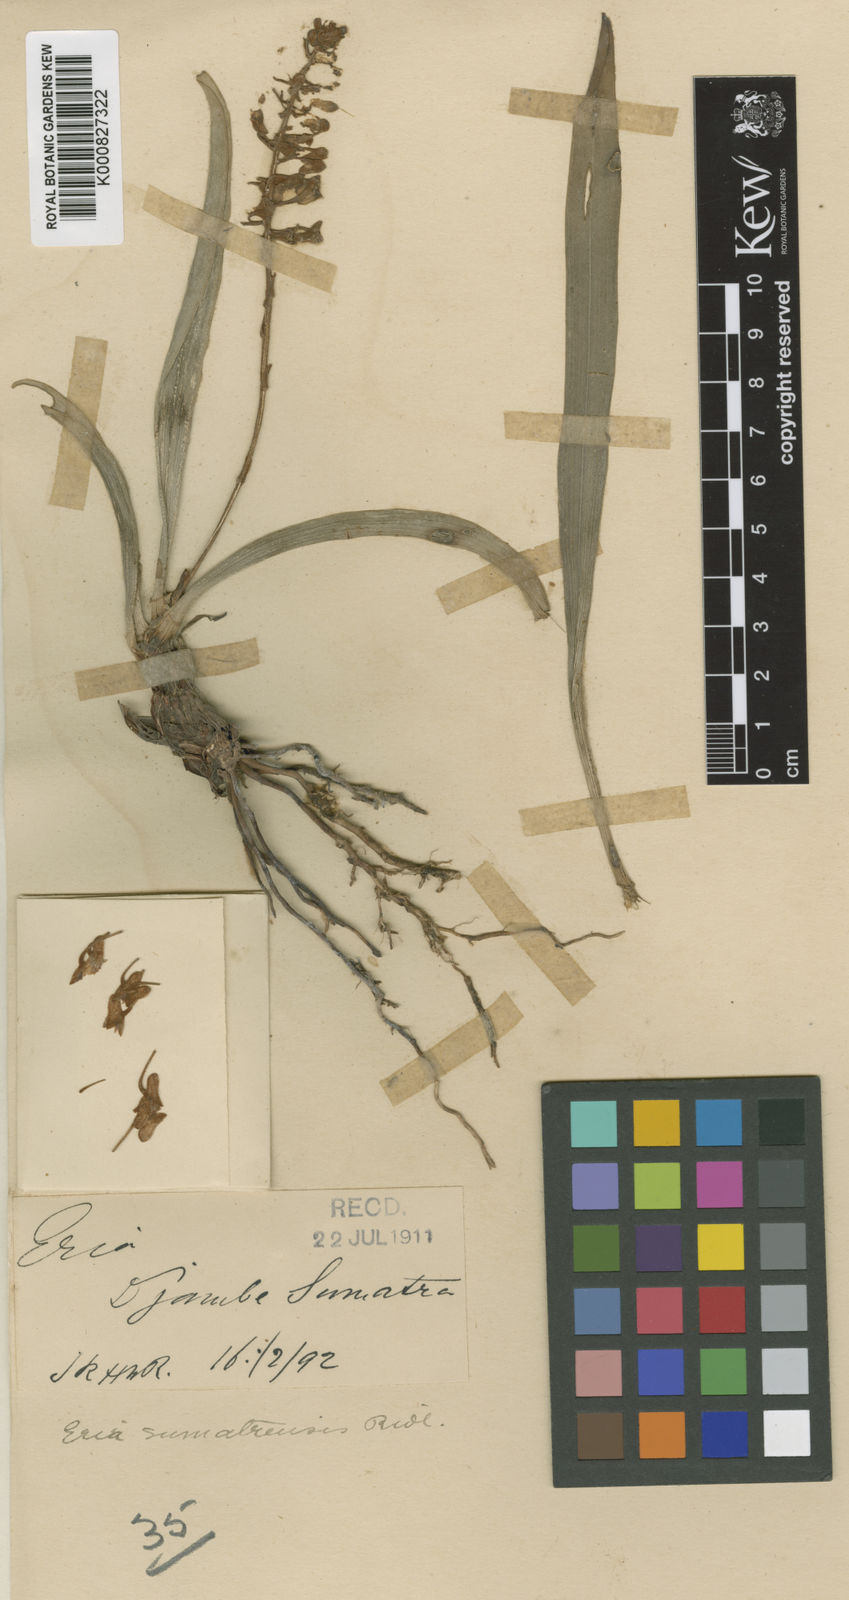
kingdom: Plantae
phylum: Tracheophyta
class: Liliopsida
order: Asparagales
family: Orchidaceae
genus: Aeridostachya
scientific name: Aeridostachya sumatrensis
